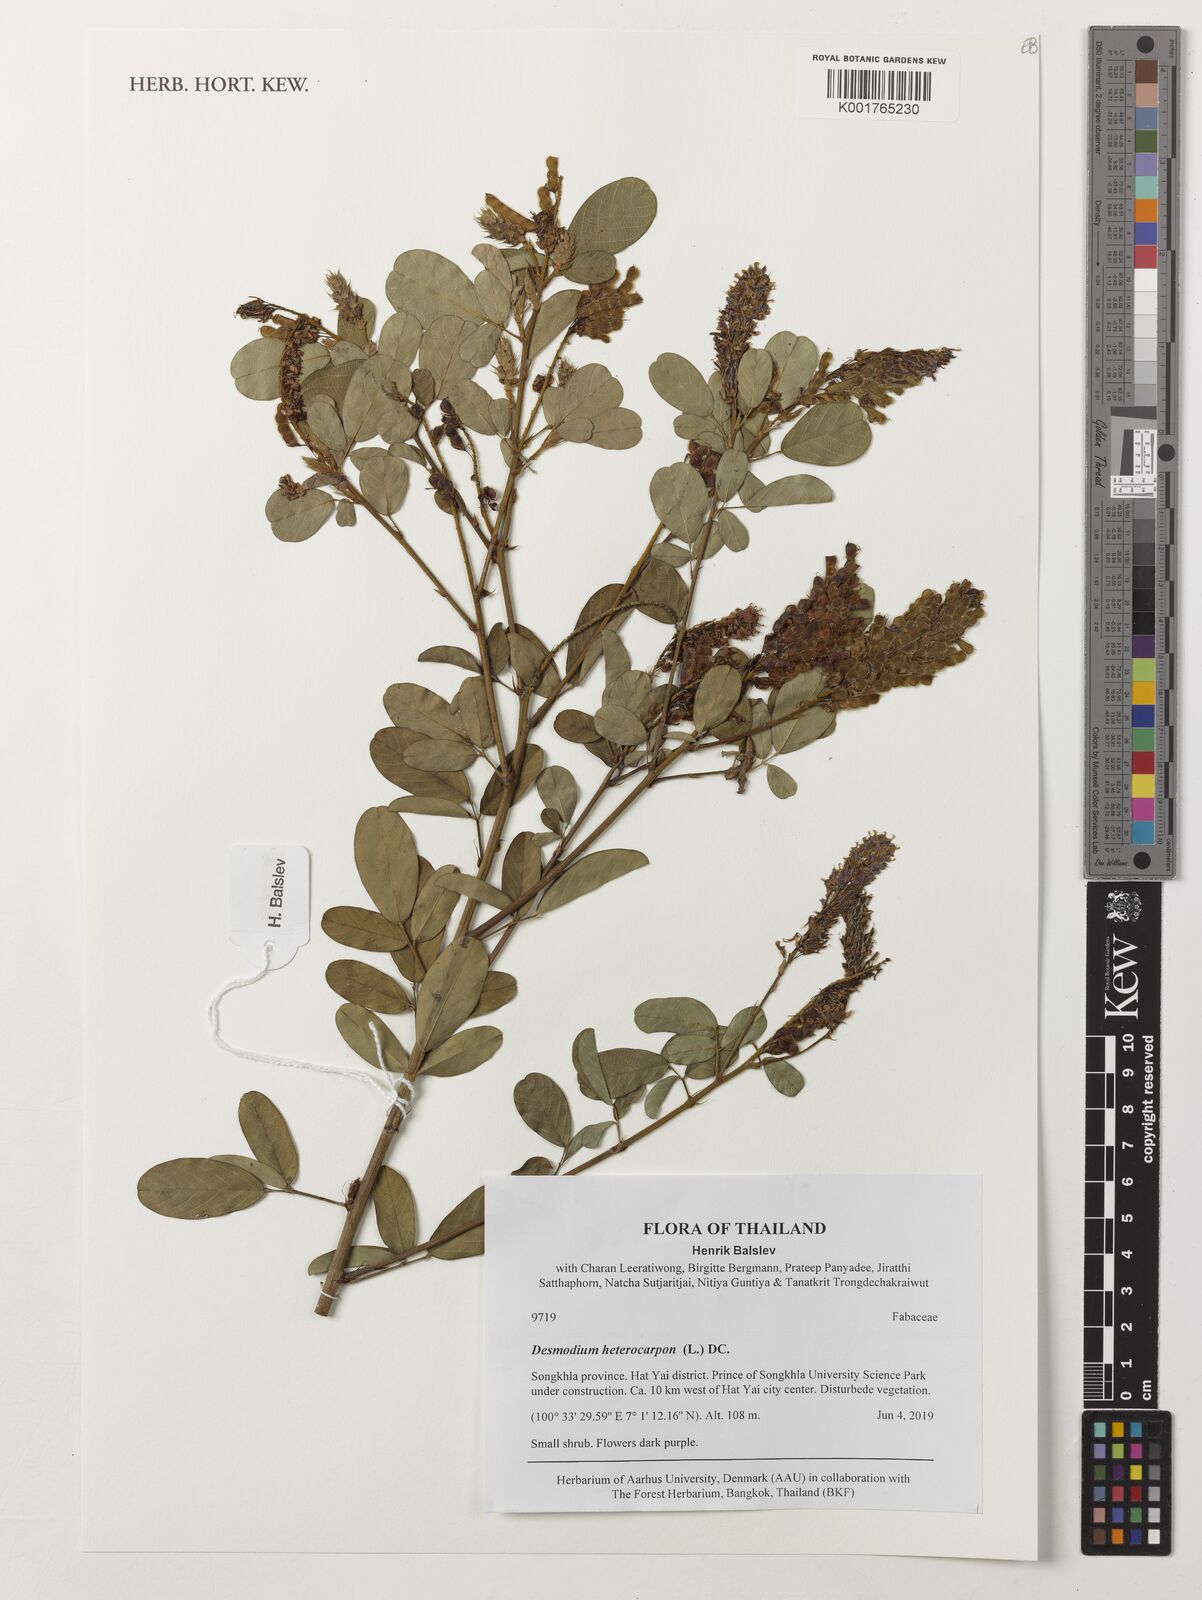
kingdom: Plantae
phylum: Tracheophyta
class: Magnoliopsida
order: Fabales
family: Fabaceae
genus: Grona
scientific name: Grona heterocarpos
